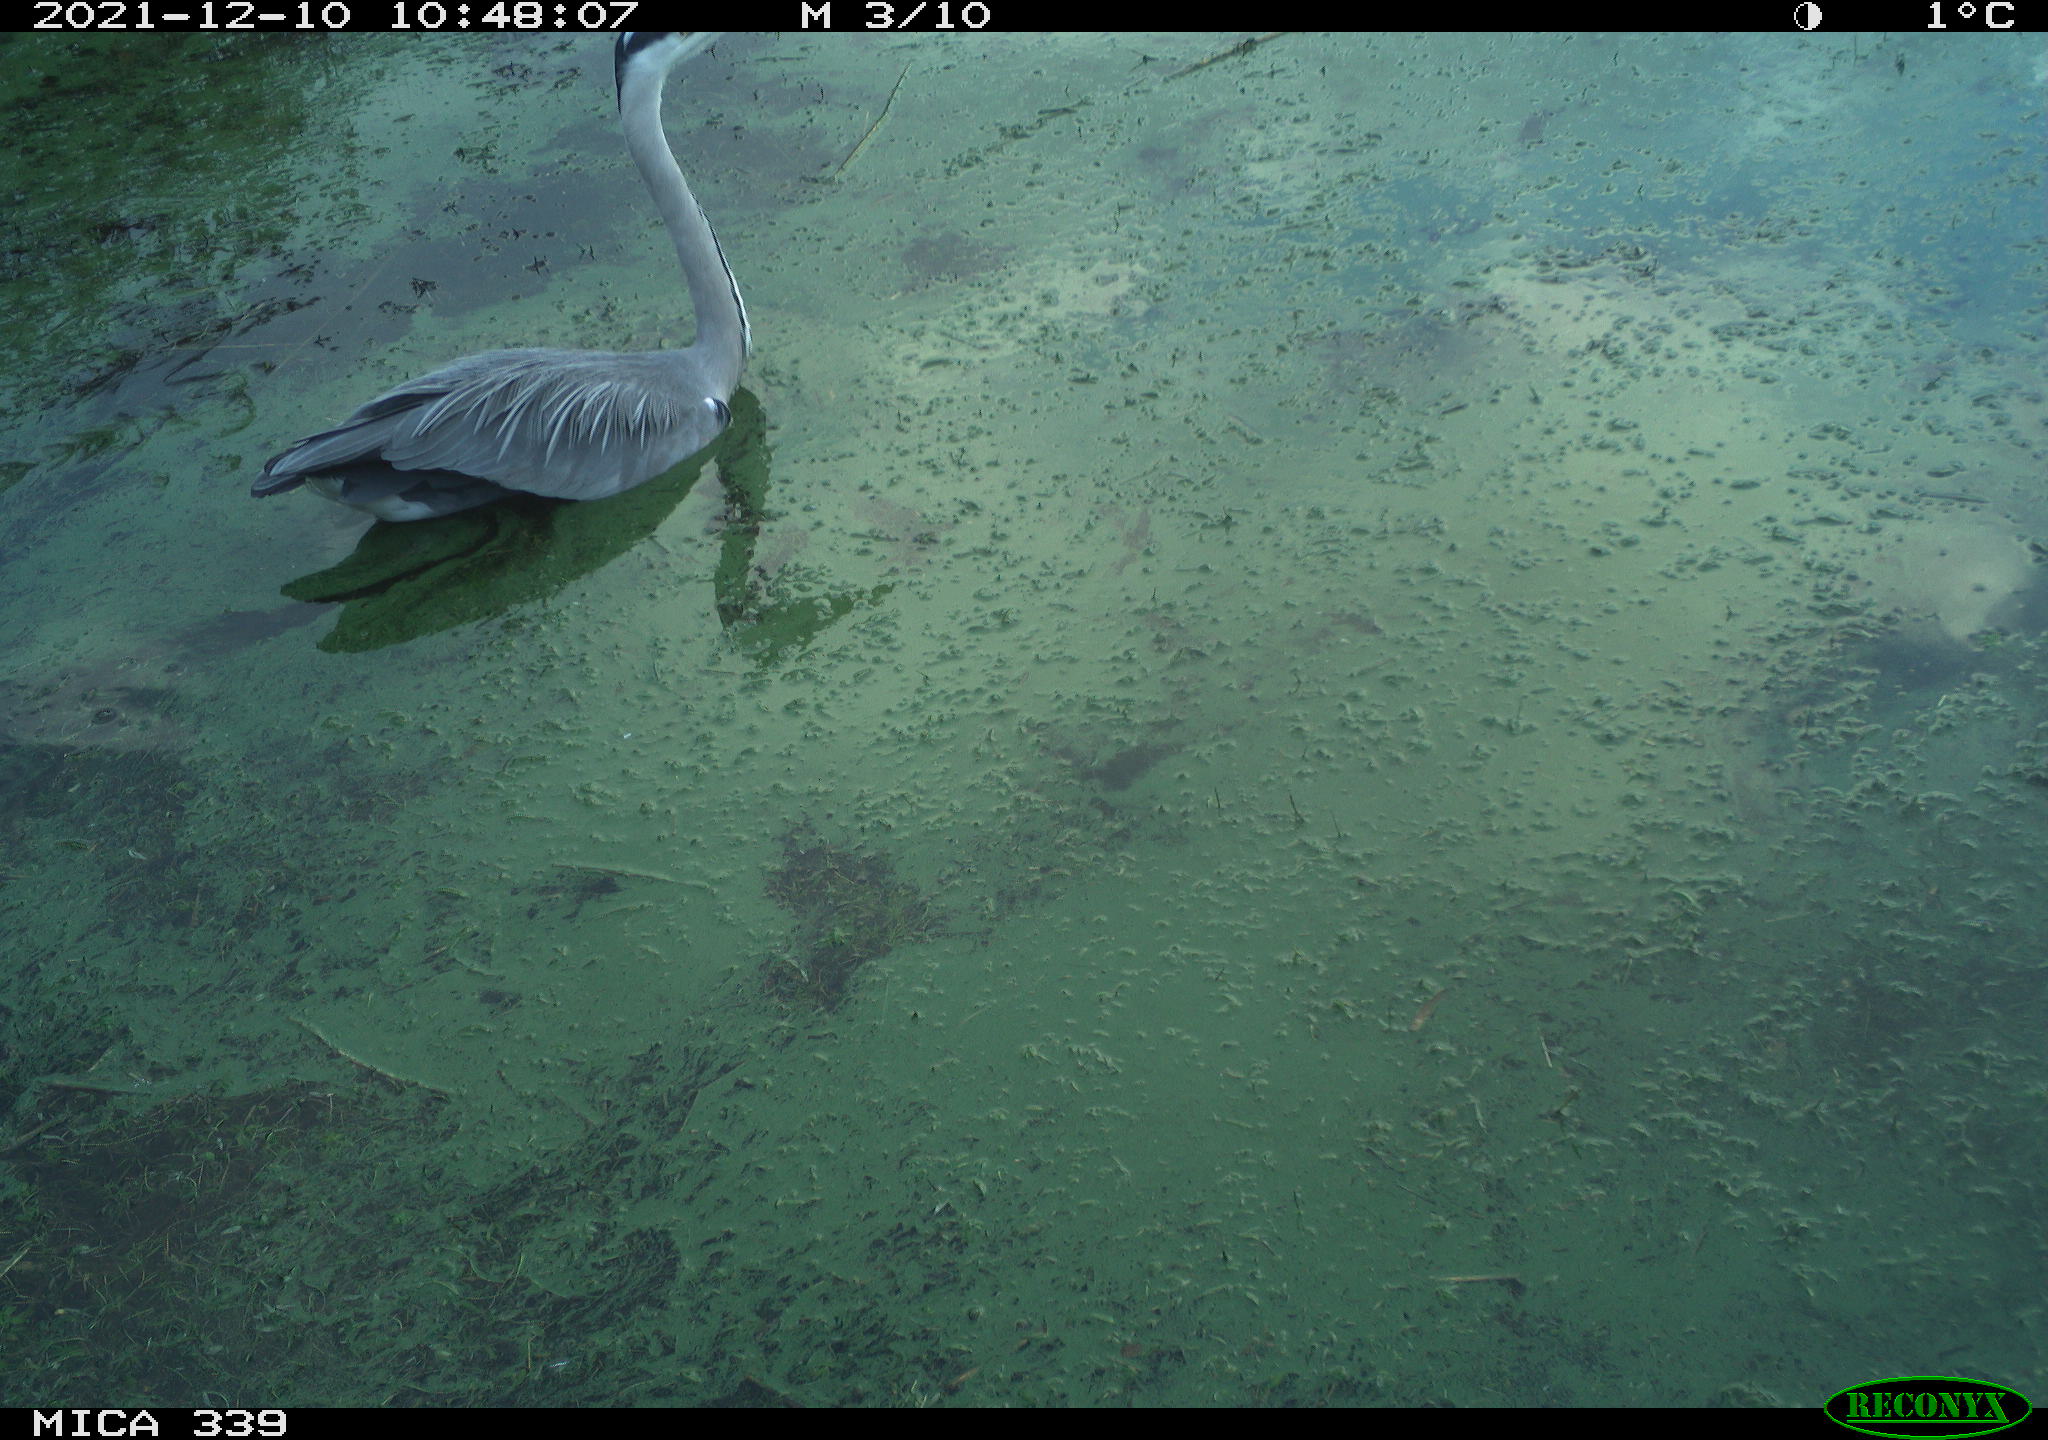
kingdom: Animalia
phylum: Chordata
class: Aves
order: Pelecaniformes
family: Ardeidae
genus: Ardea
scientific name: Ardea cinerea
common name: Grey heron
